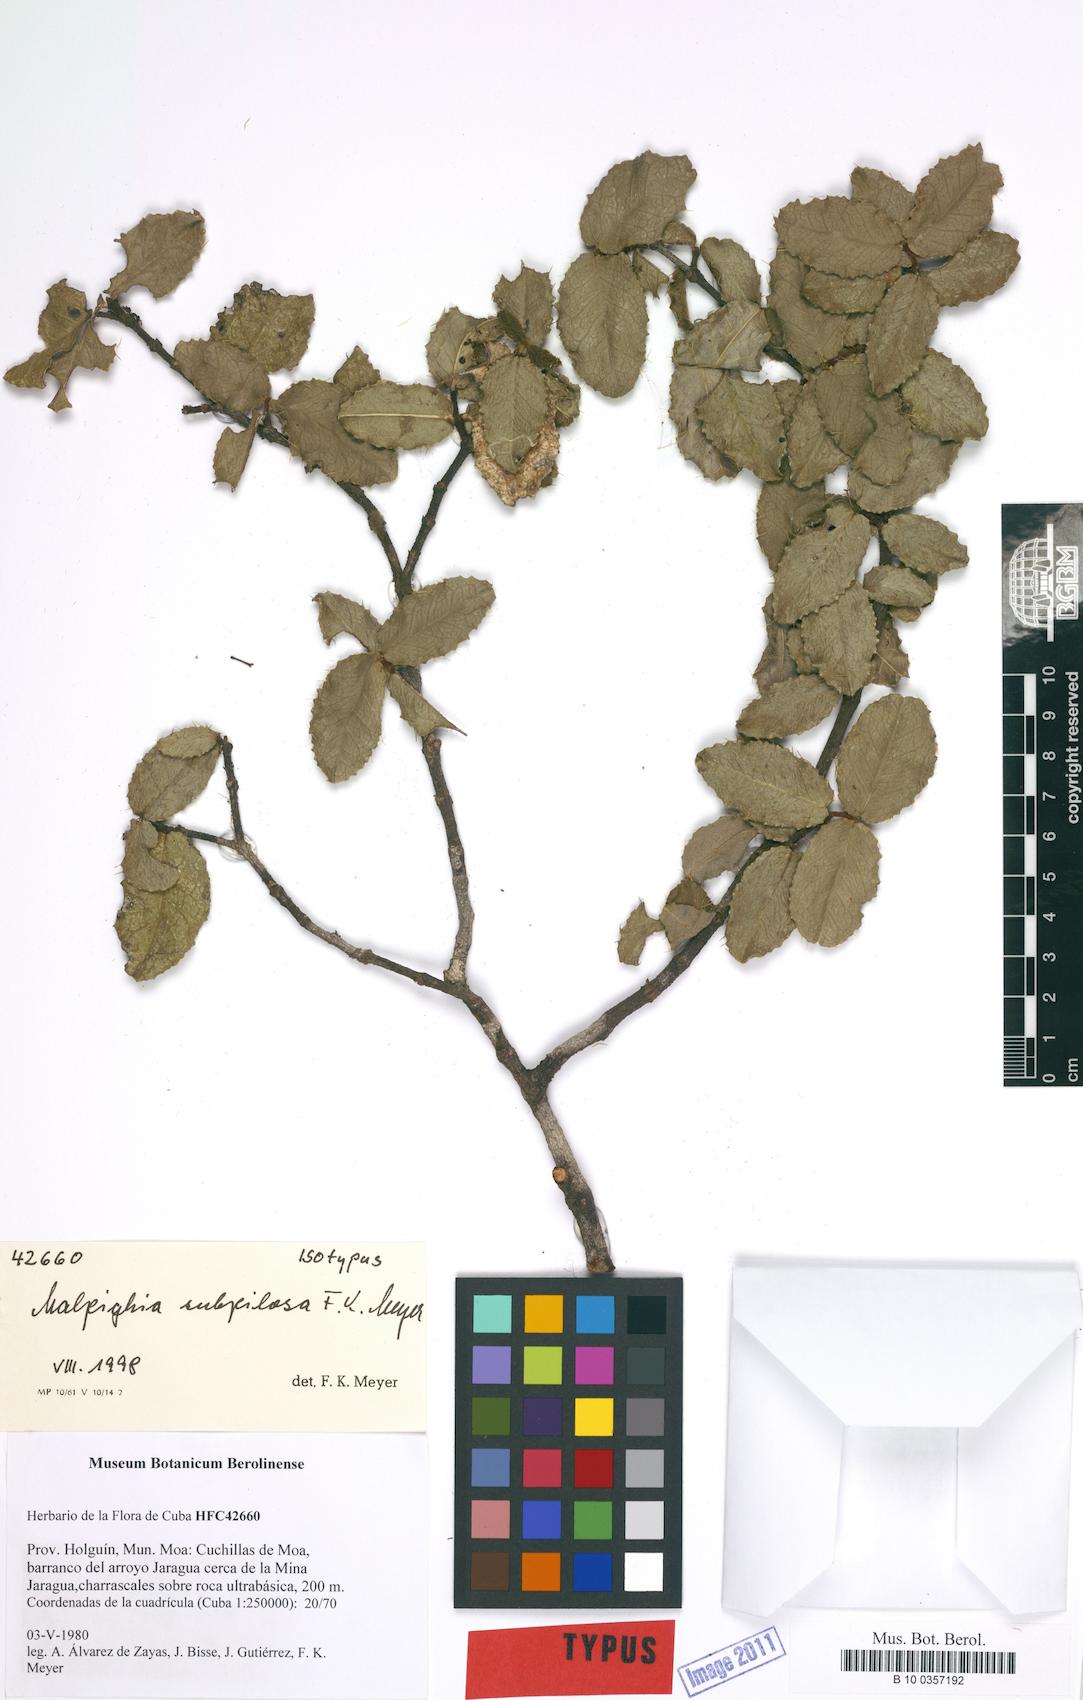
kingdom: Plantae
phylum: Tracheophyta
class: Magnoliopsida
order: Malpighiales
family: Malpighiaceae
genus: Malpighia
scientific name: Malpighia cnide
